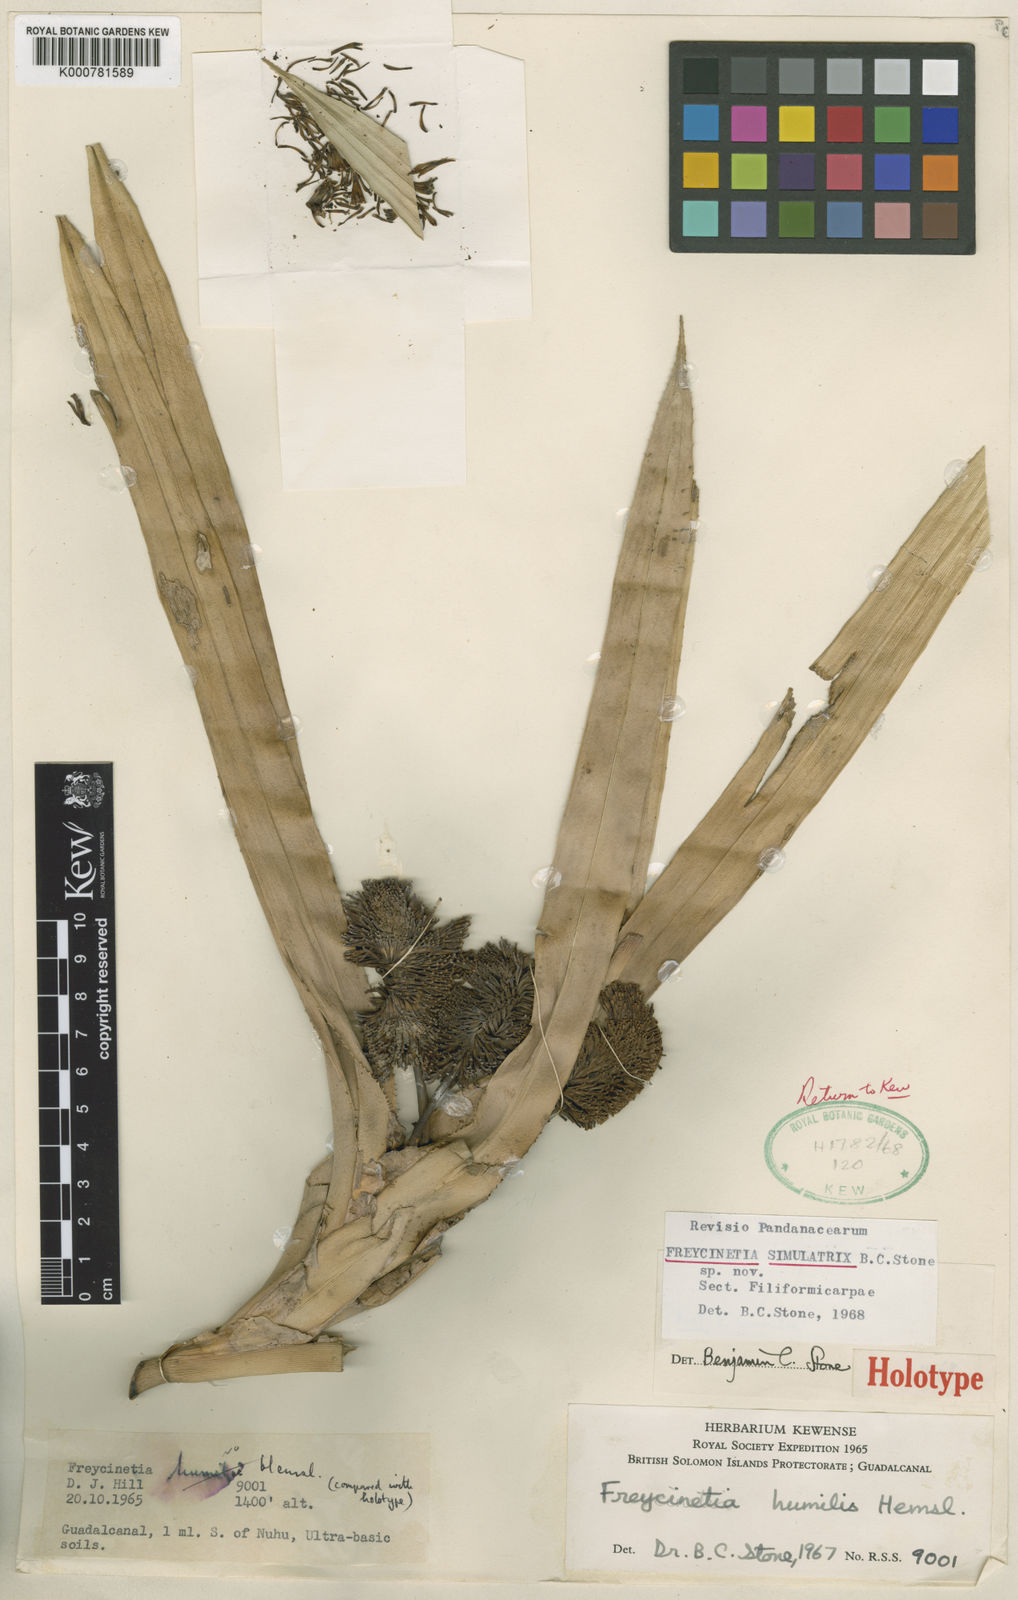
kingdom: Plantae
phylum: Tracheophyta
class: Liliopsida
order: Pandanales
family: Pandanaceae
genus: Freycinetia
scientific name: Freycinetia
